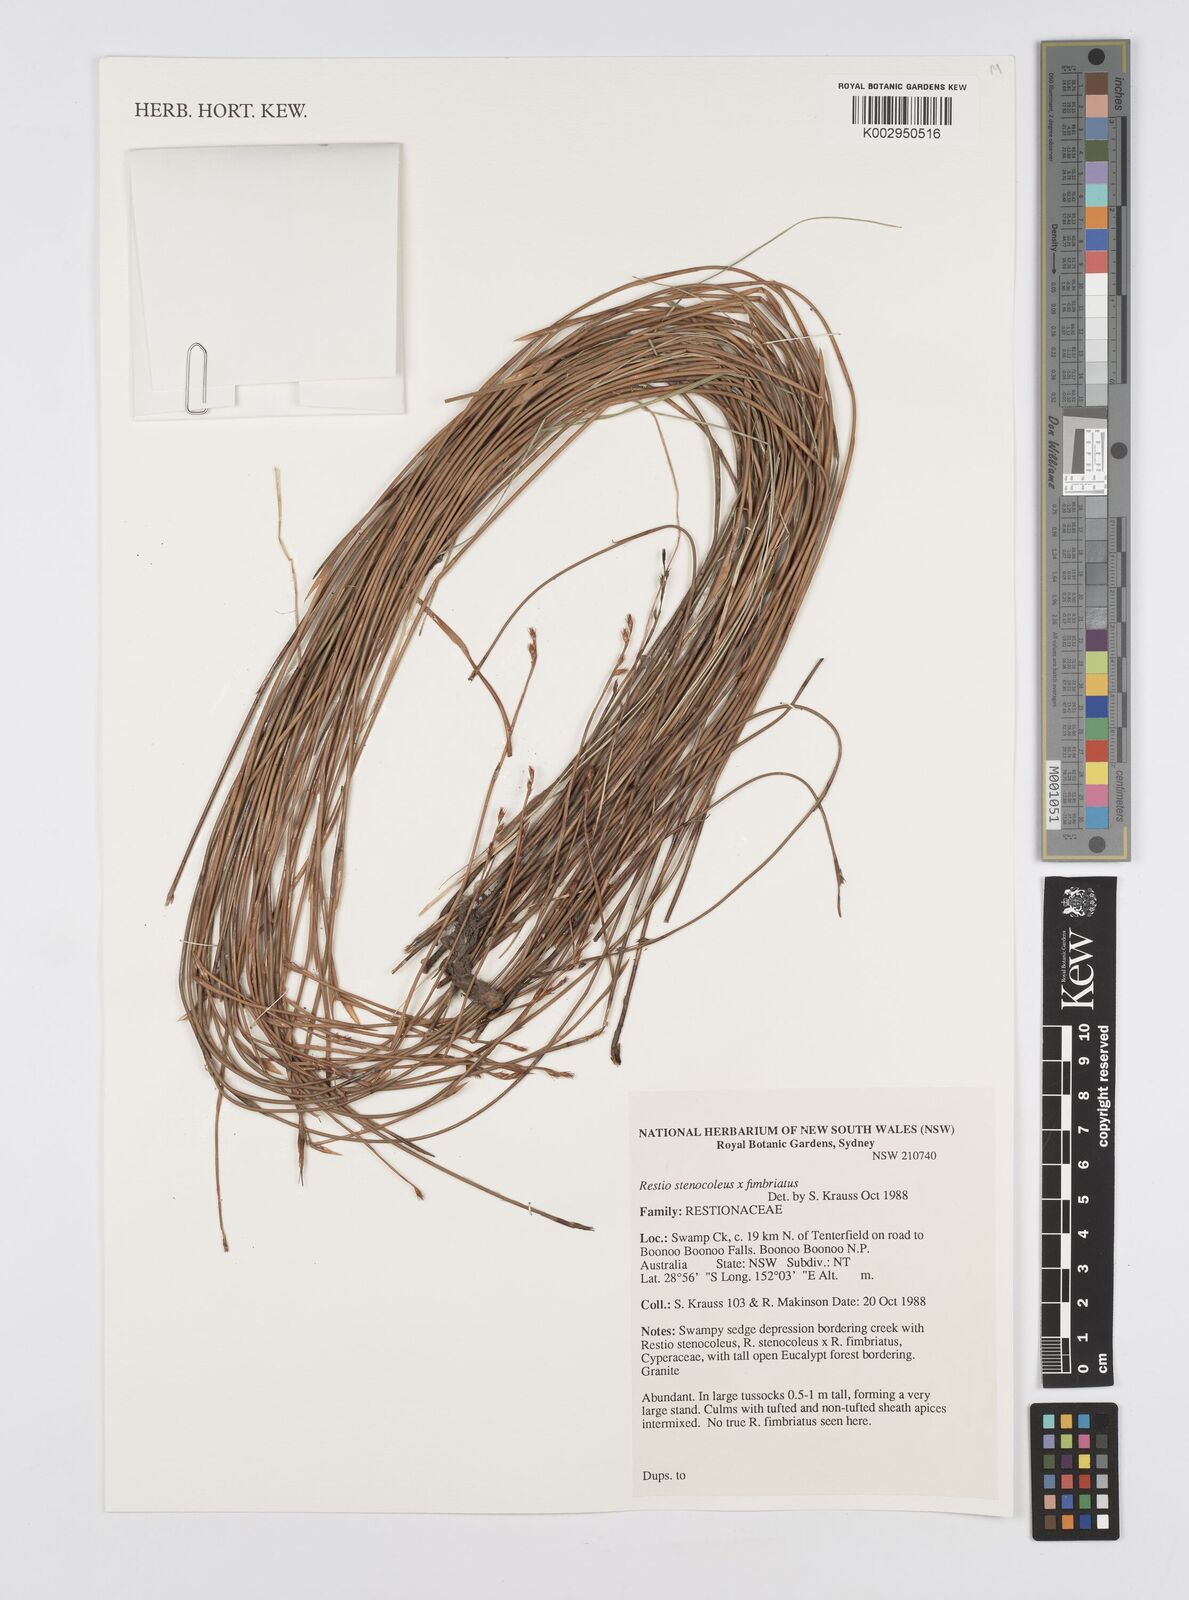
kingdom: Plantae
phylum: Tracheophyta
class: Liliopsida
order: Poales
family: Restionaceae
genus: Baloskion
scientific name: Baloskion stenocoleum
